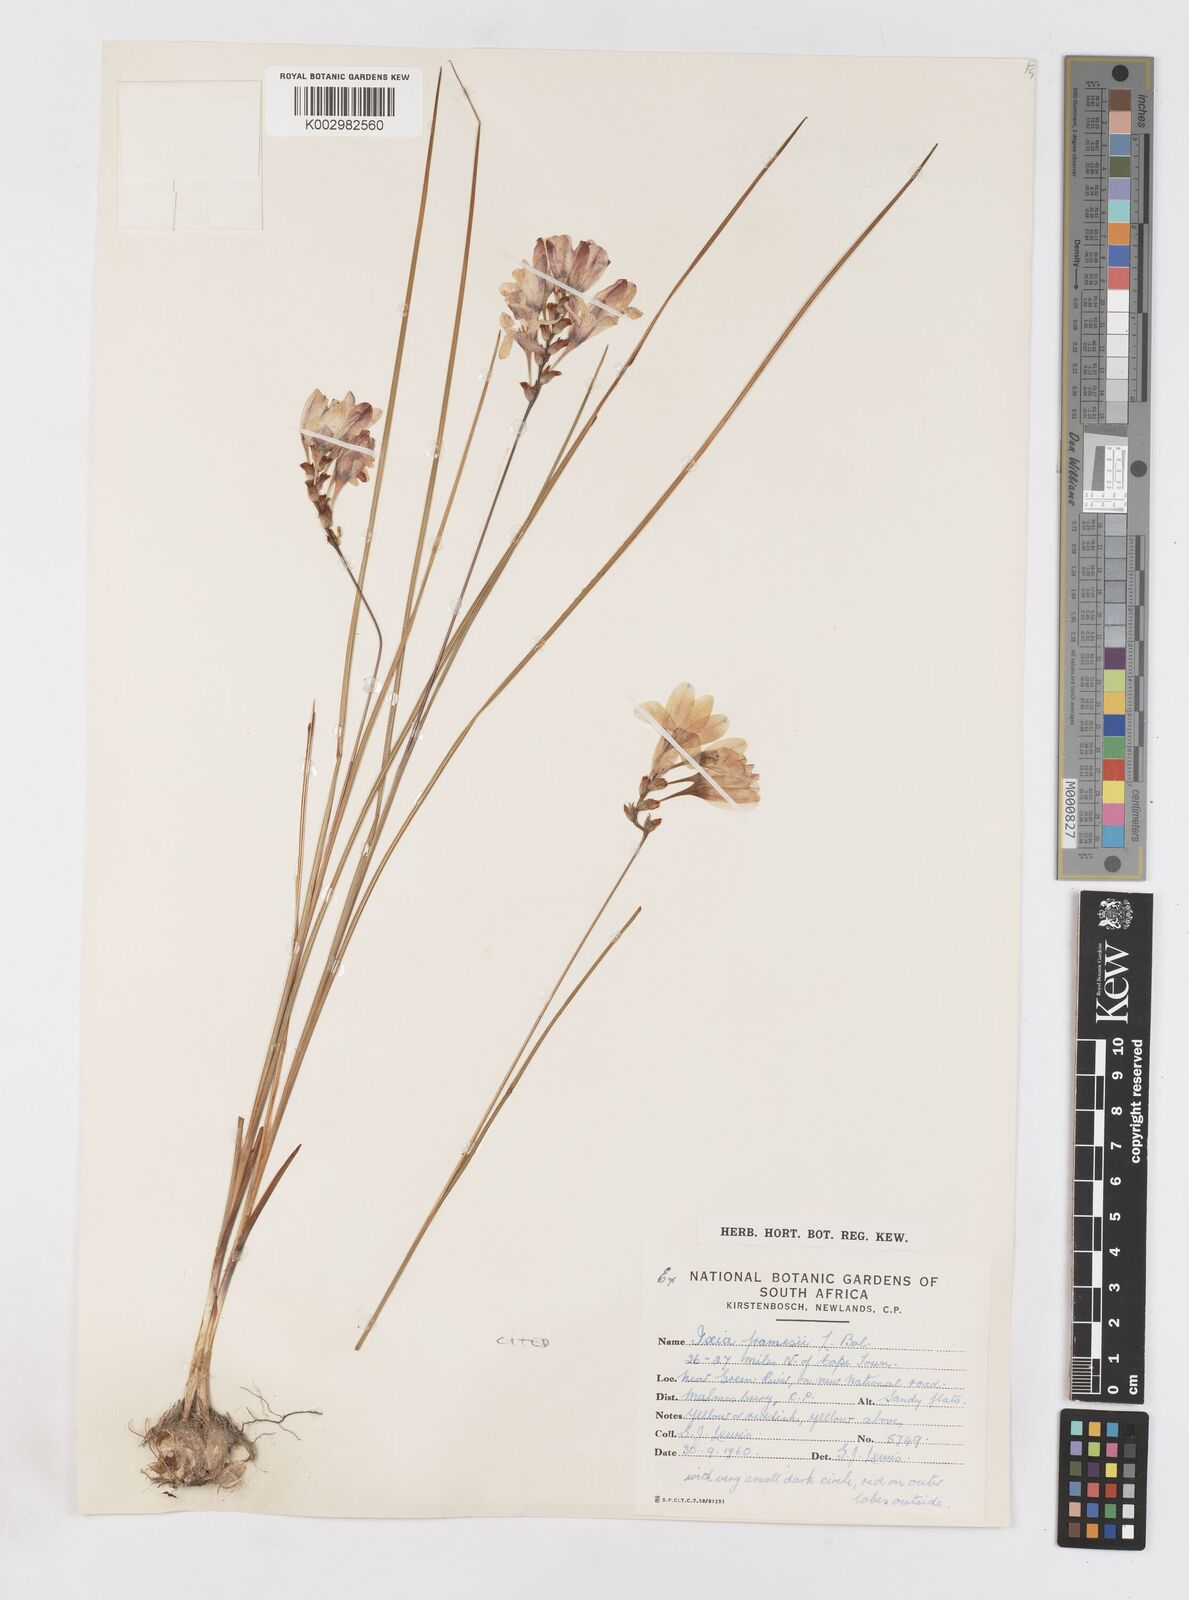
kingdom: Plantae
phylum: Tracheophyta
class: Liliopsida
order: Asparagales
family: Iridaceae
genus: Ixia
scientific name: Ixia tenuifolia
